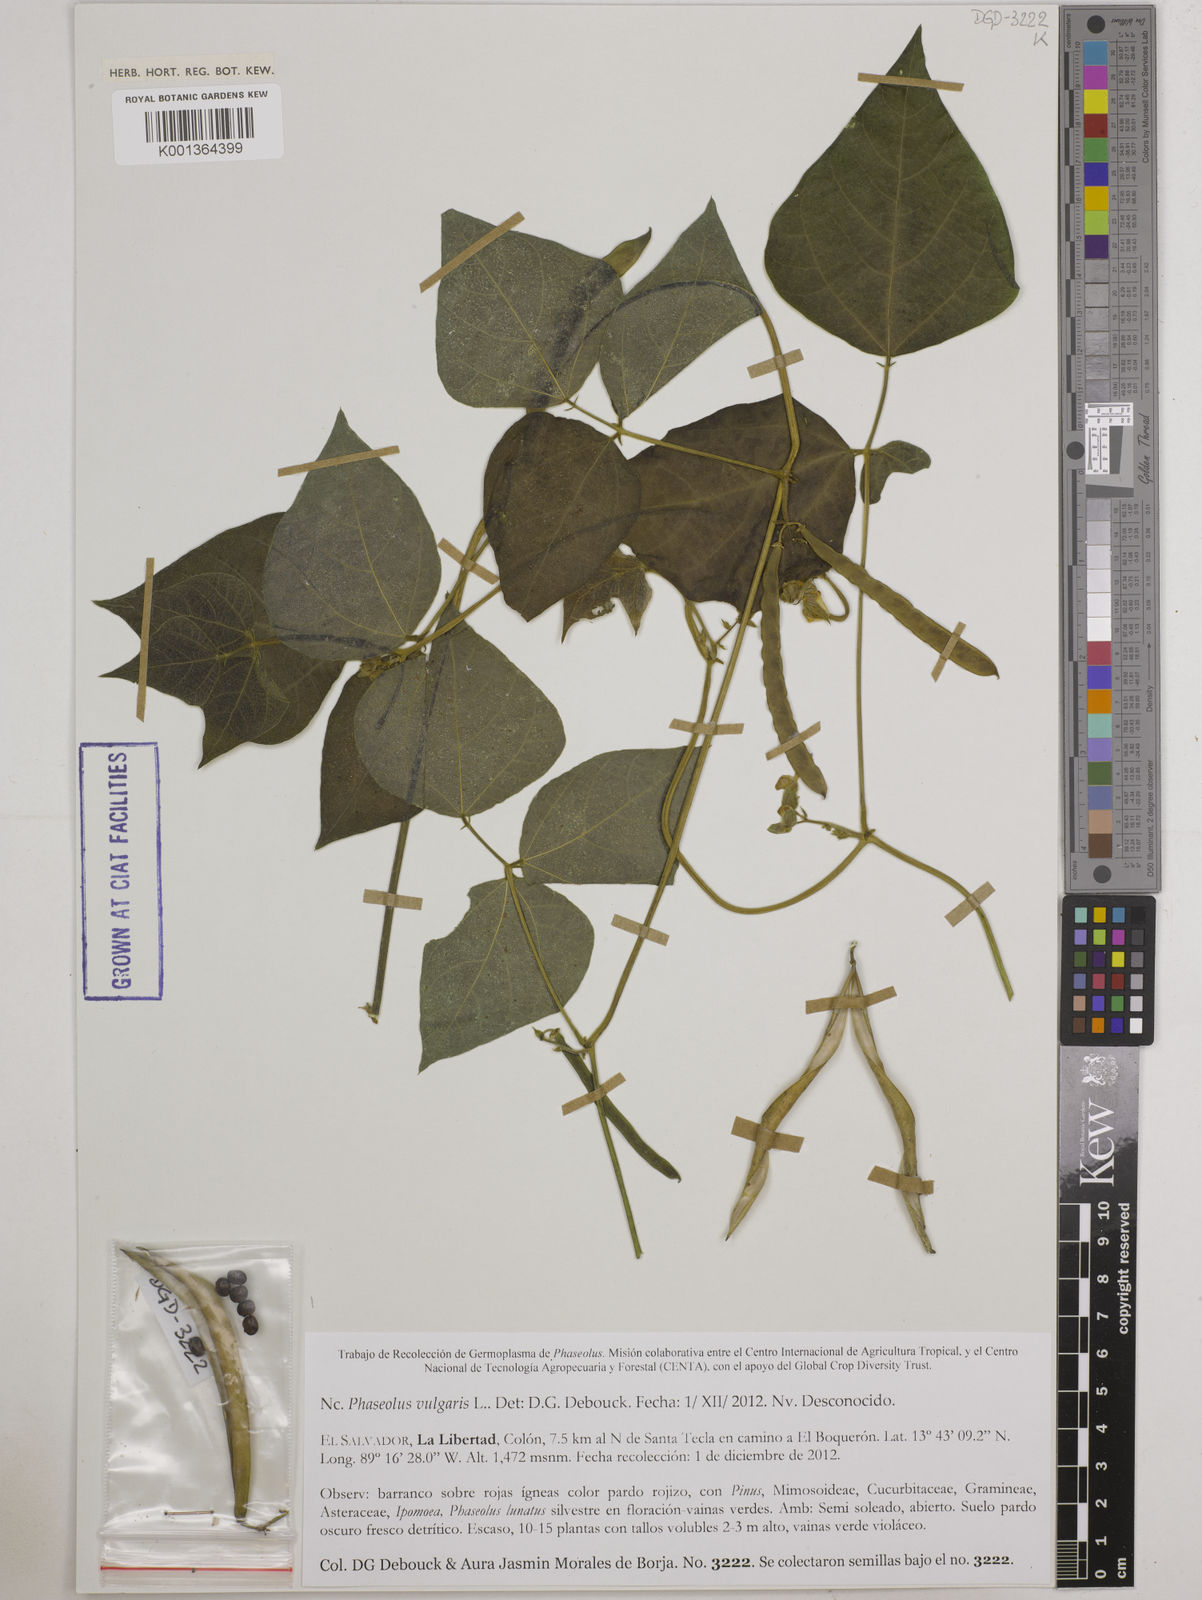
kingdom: Plantae
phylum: Tracheophyta
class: Magnoliopsida
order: Fabales
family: Fabaceae
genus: Phaseolus
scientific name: Phaseolus vulgaris
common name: Bean
